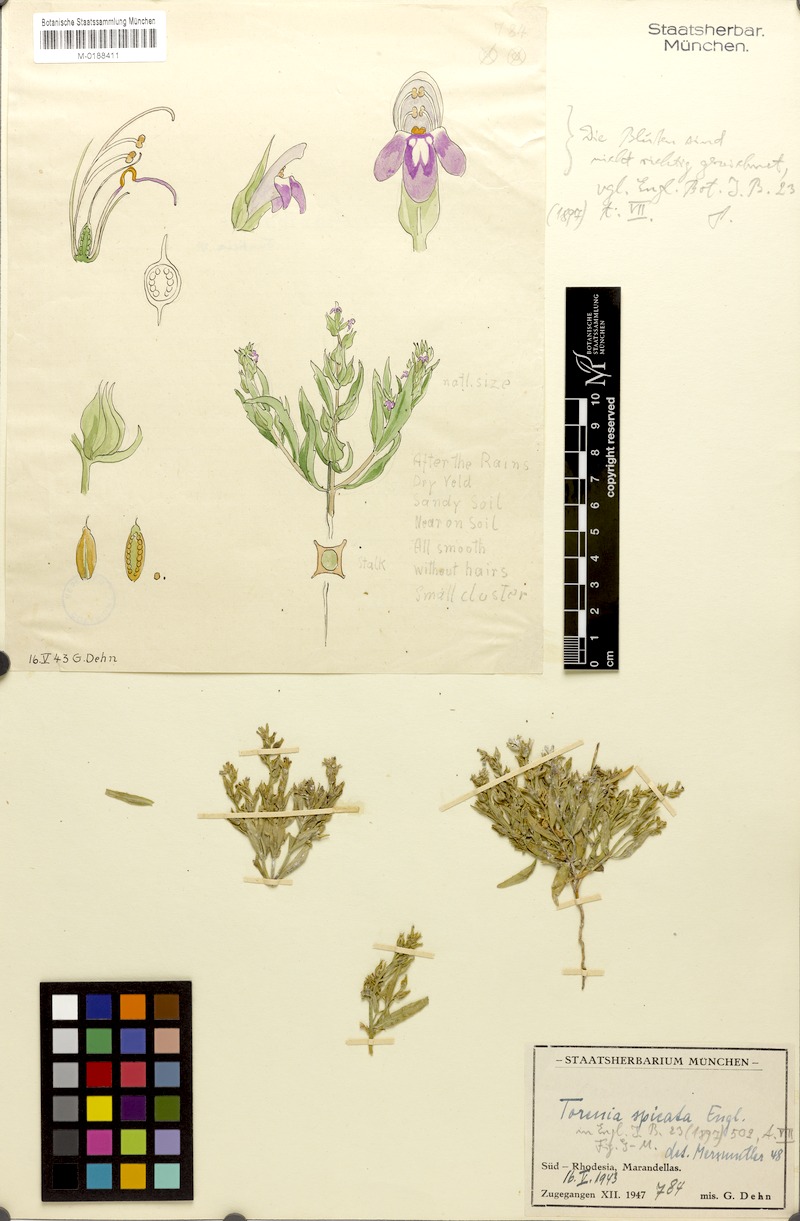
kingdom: Plantae
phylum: Tracheophyta
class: Magnoliopsida
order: Lamiales
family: Linderniaceae
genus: Crepidorhopalon
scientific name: Crepidorhopalon spicatus
